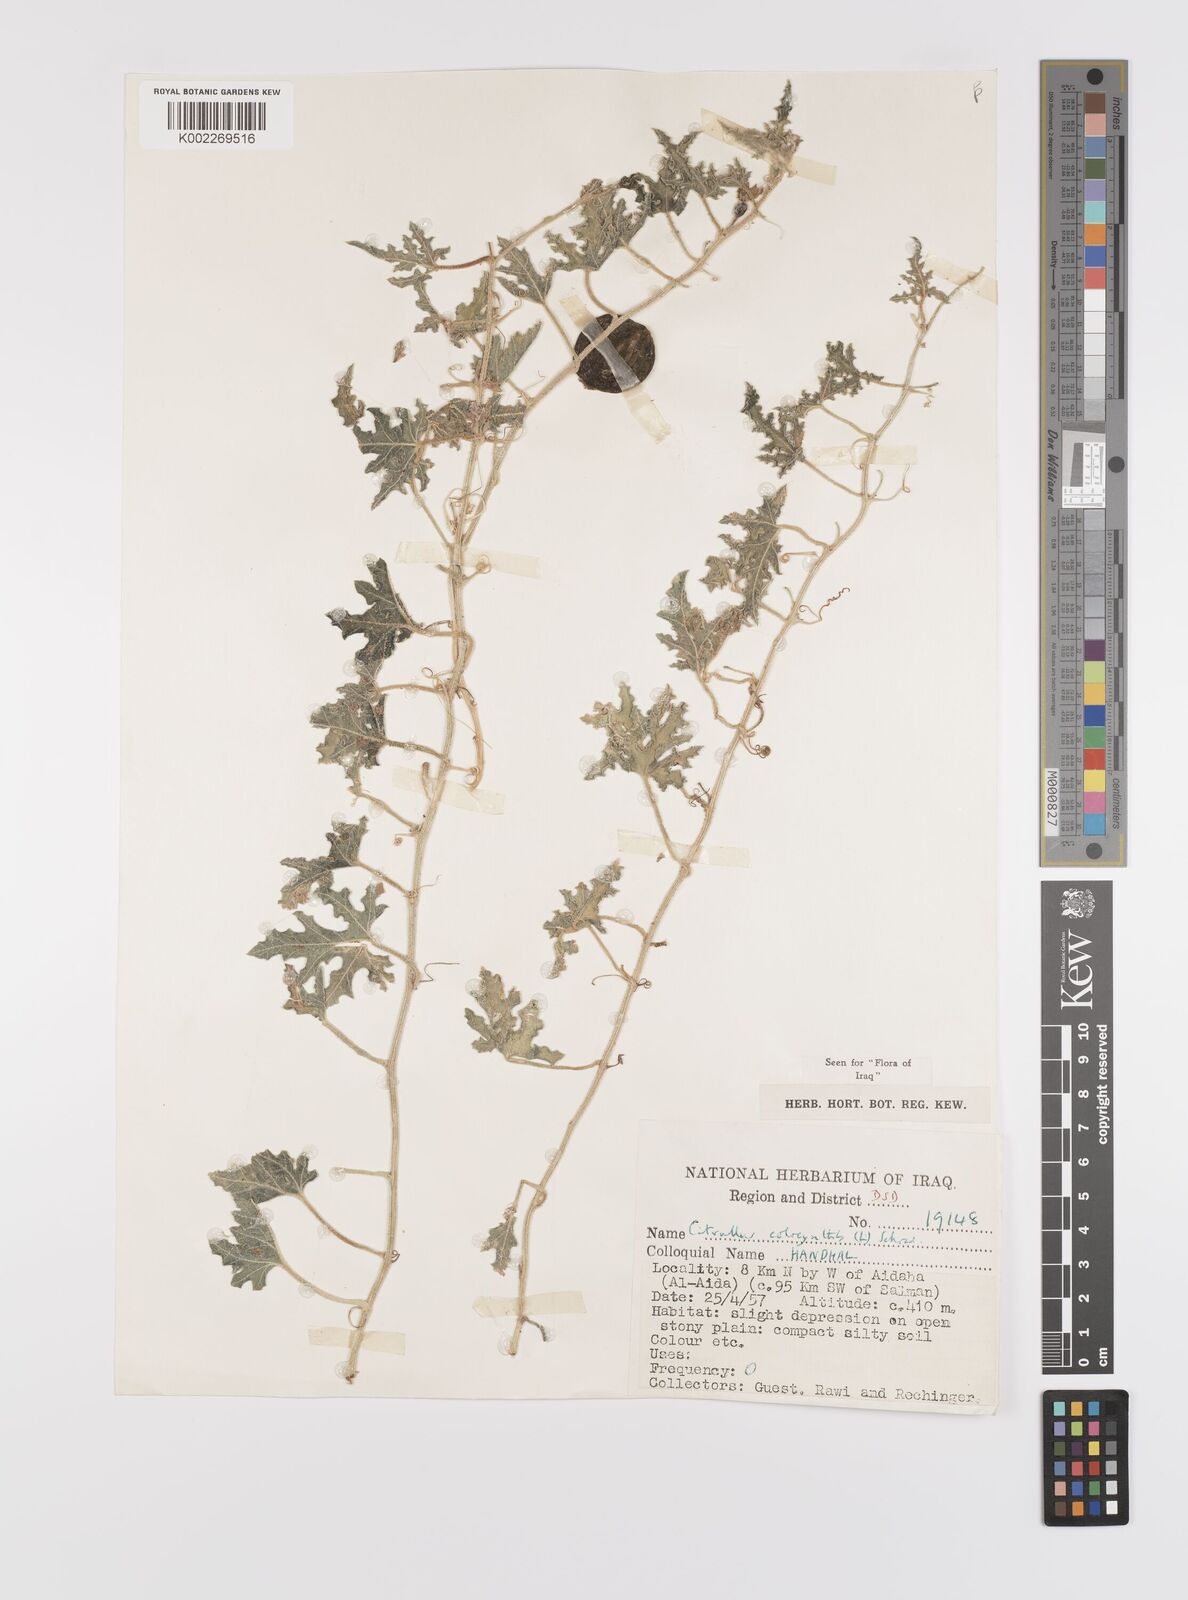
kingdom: Plantae
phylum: Tracheophyta
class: Magnoliopsida
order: Cucurbitales
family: Cucurbitaceae
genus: Citrullus
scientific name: Citrullus colocynthis
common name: Colocynth
